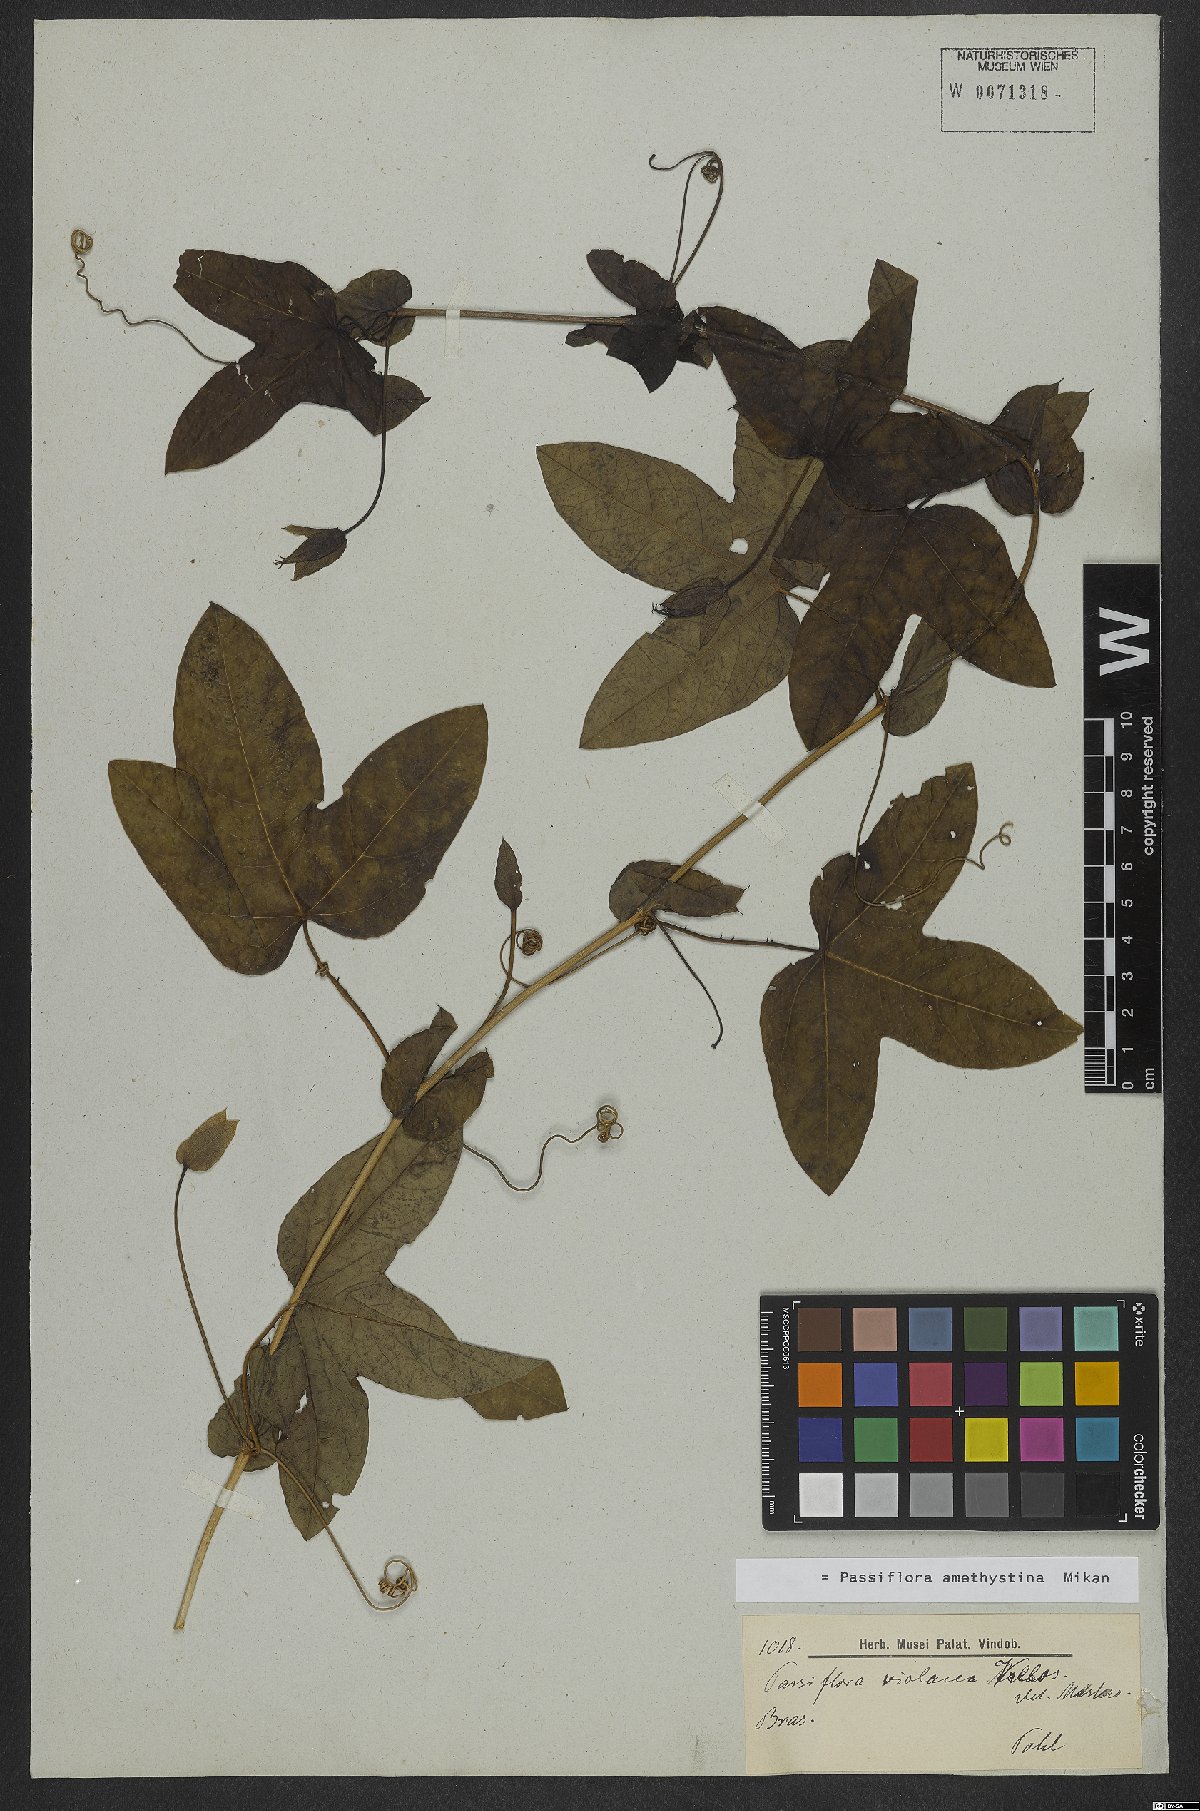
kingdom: Plantae
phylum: Tracheophyta
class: Magnoliopsida
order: Malpighiales
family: Passifloraceae
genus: Passiflora
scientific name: Passiflora amethystina
